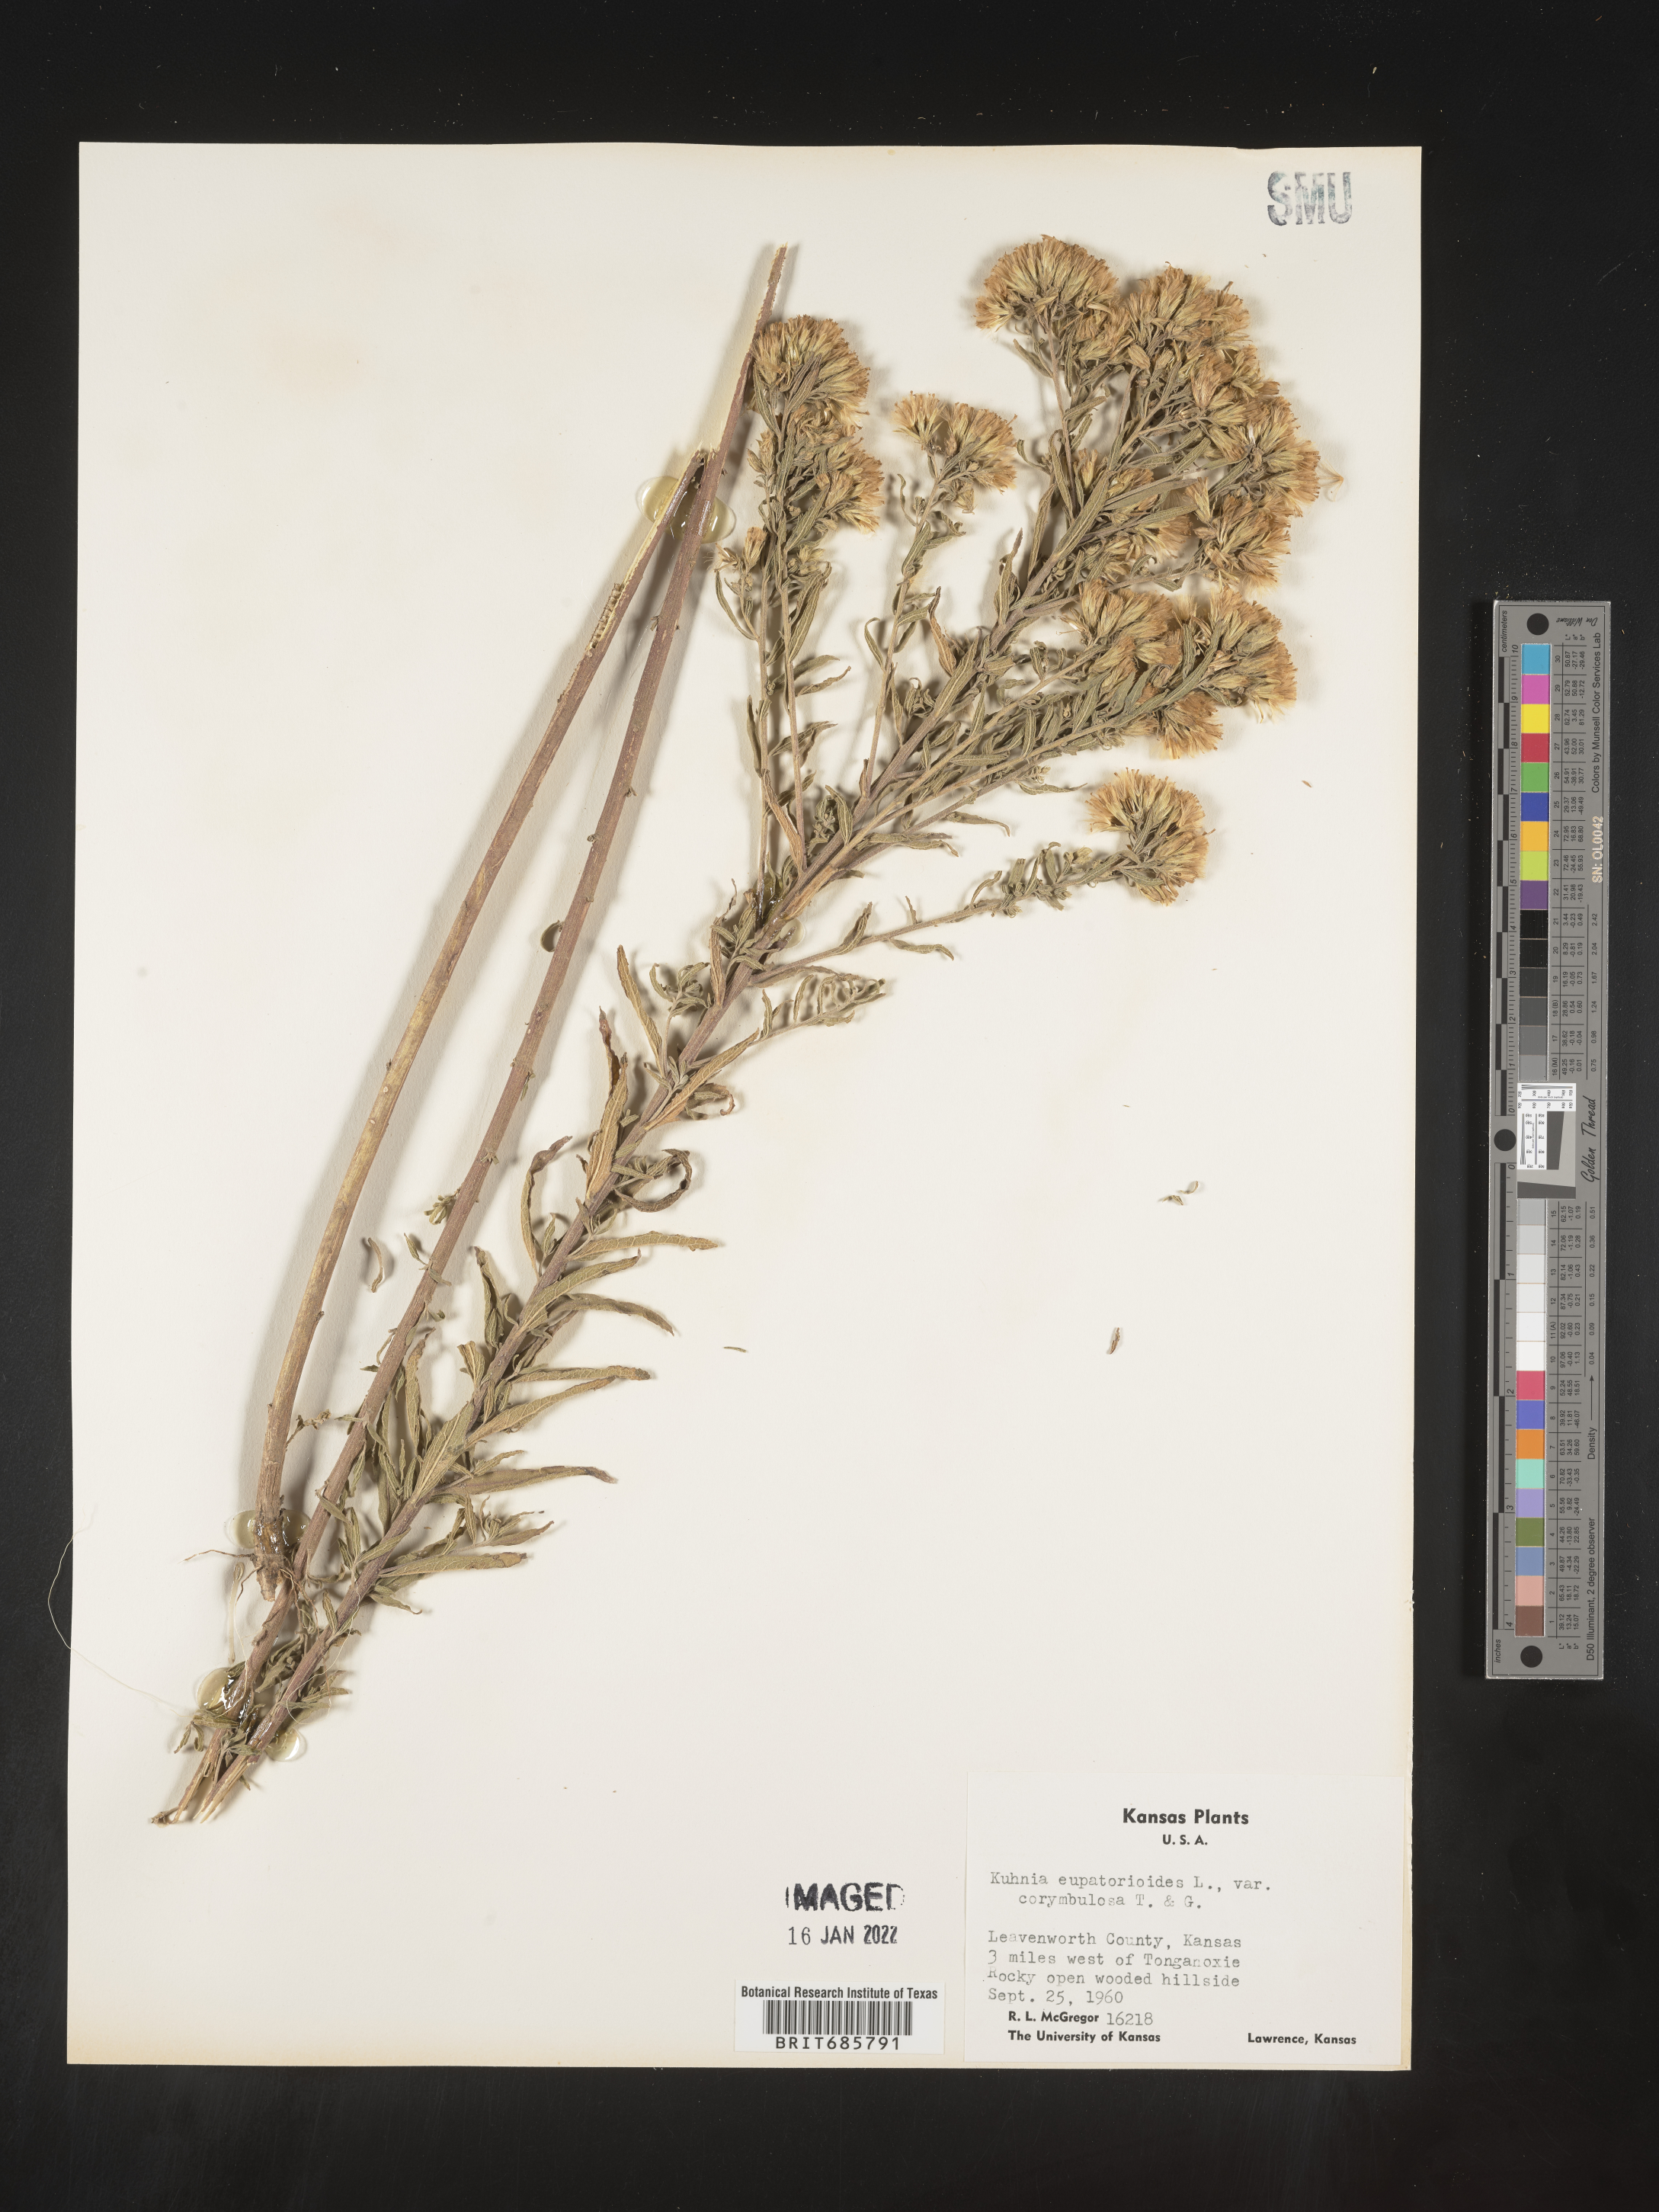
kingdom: Plantae
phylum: Tracheophyta
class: Magnoliopsida
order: Asterales
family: Asteraceae
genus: Brickellia
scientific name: Brickellia eupatorioides
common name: False boneset
